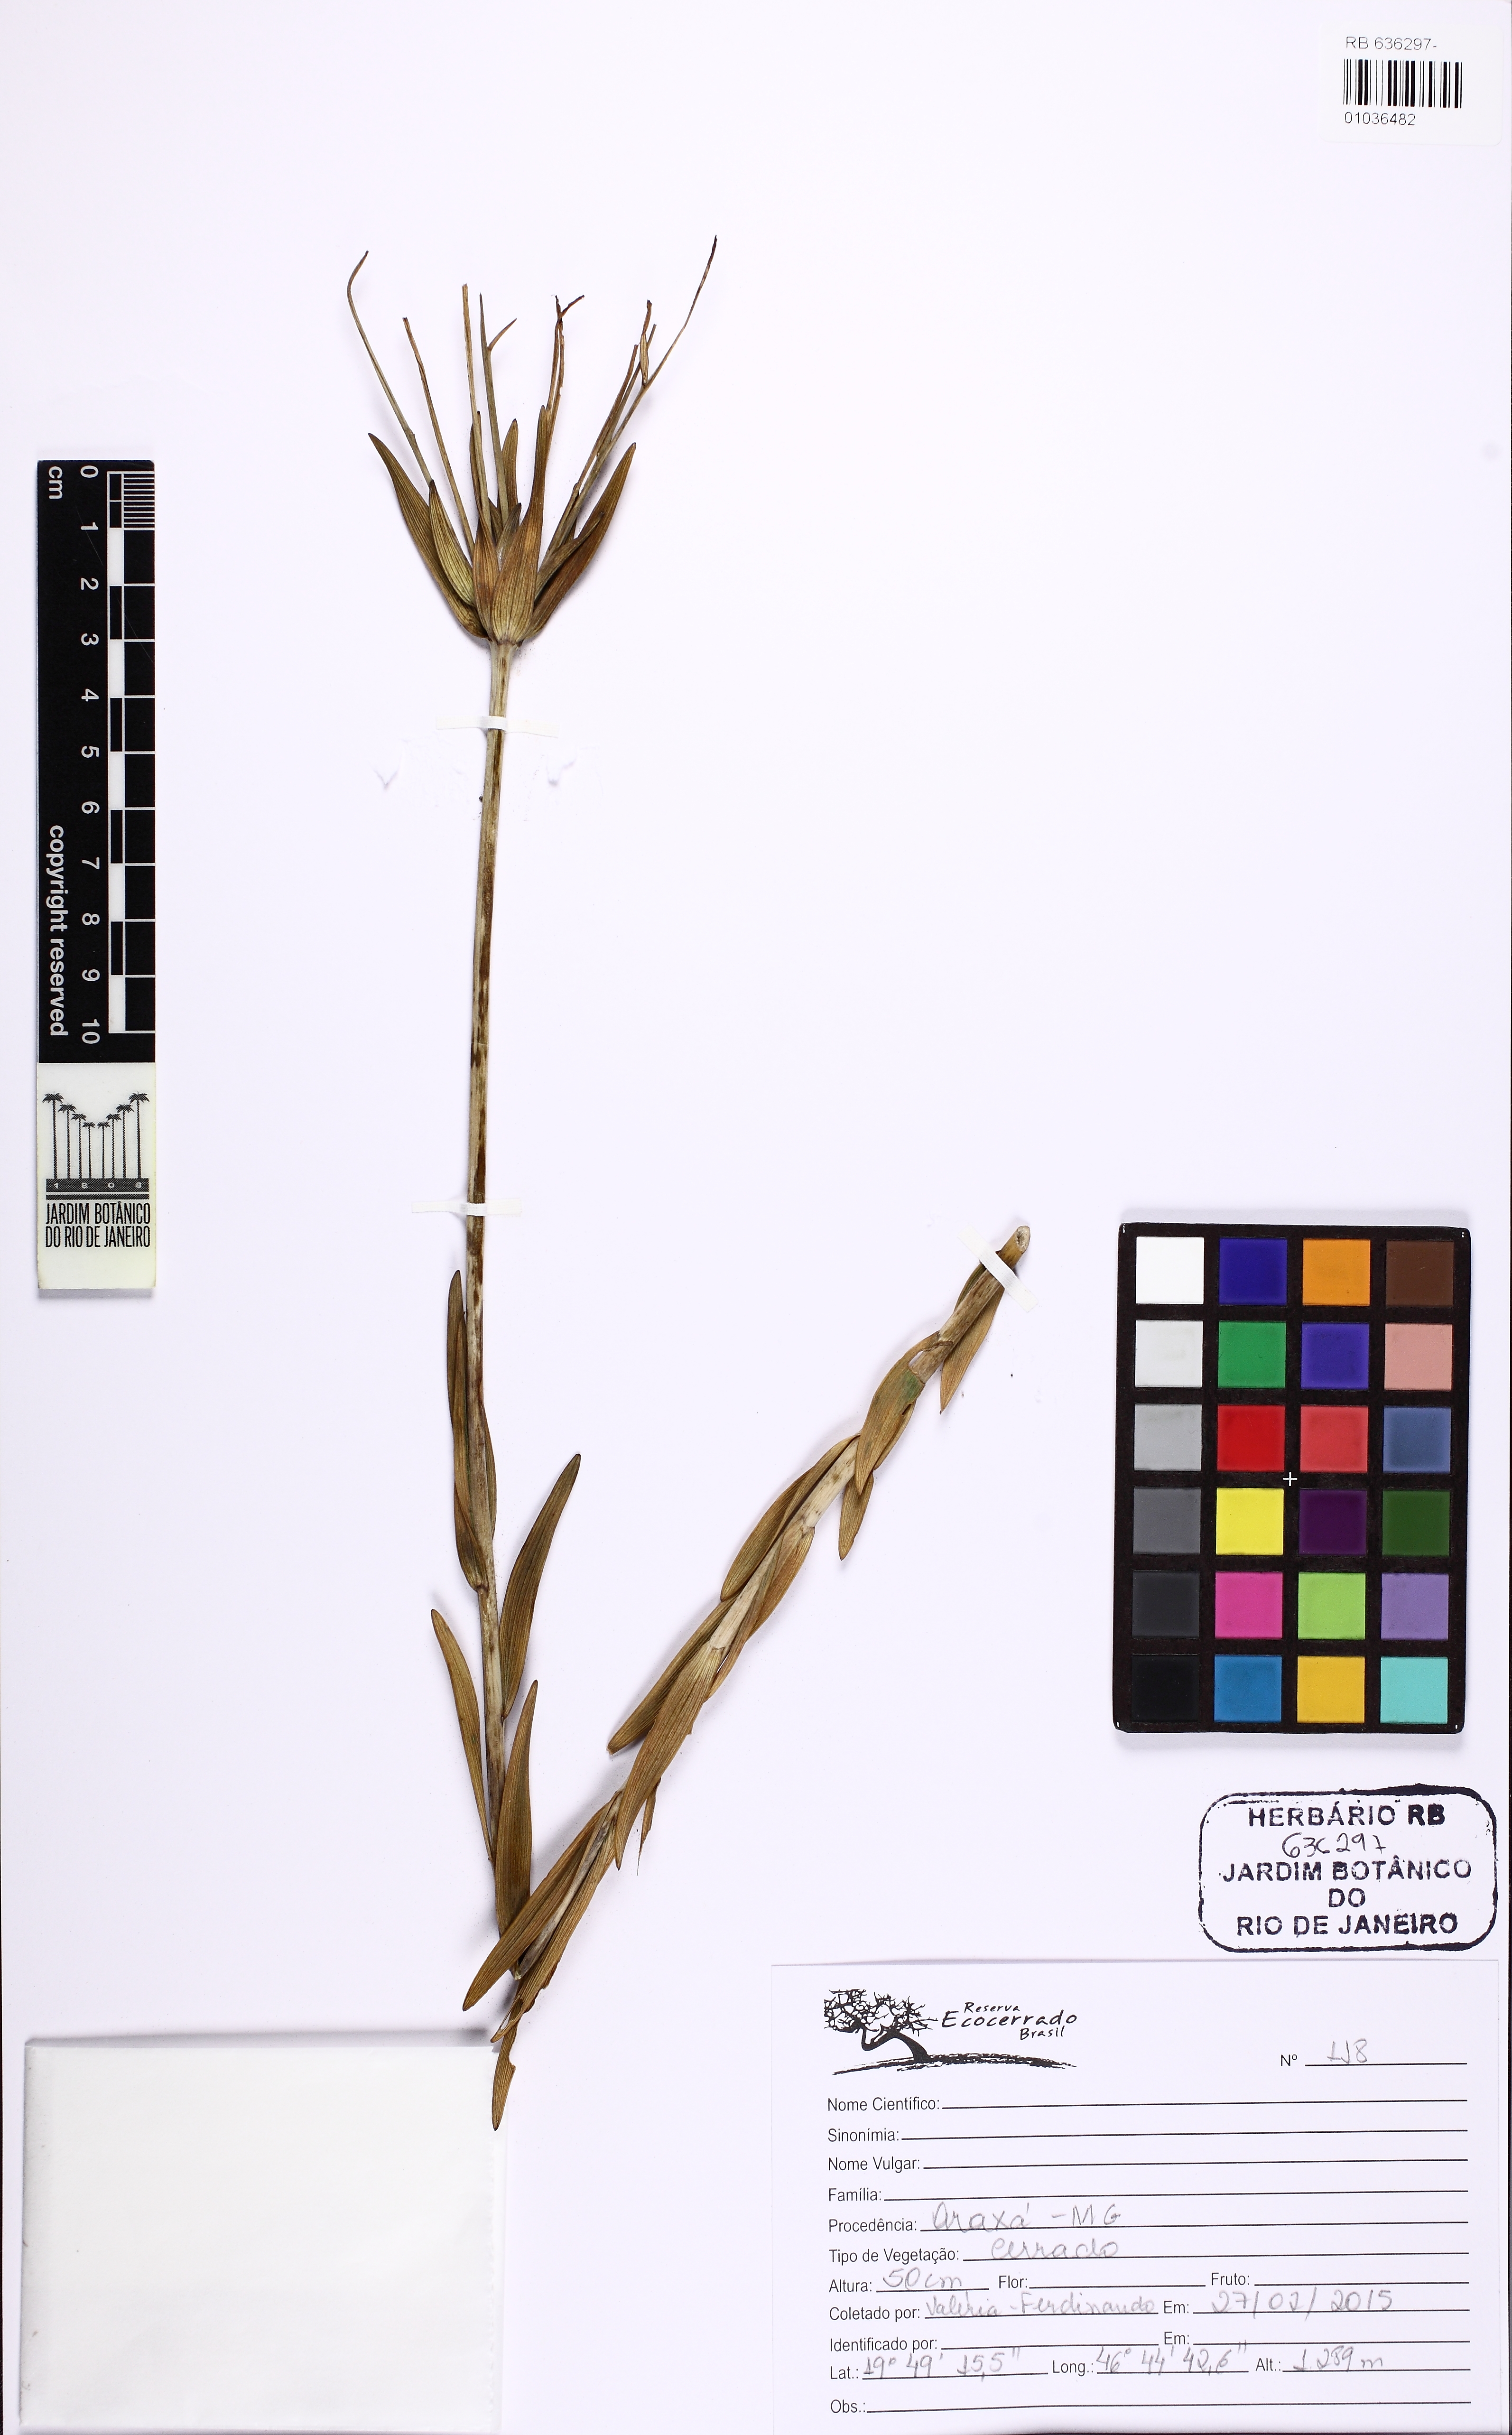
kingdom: Plantae
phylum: Tracheophyta
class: Liliopsida
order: Liliales
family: Alstroemeriaceae
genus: Alstroemeria
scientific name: Alstroemeria
